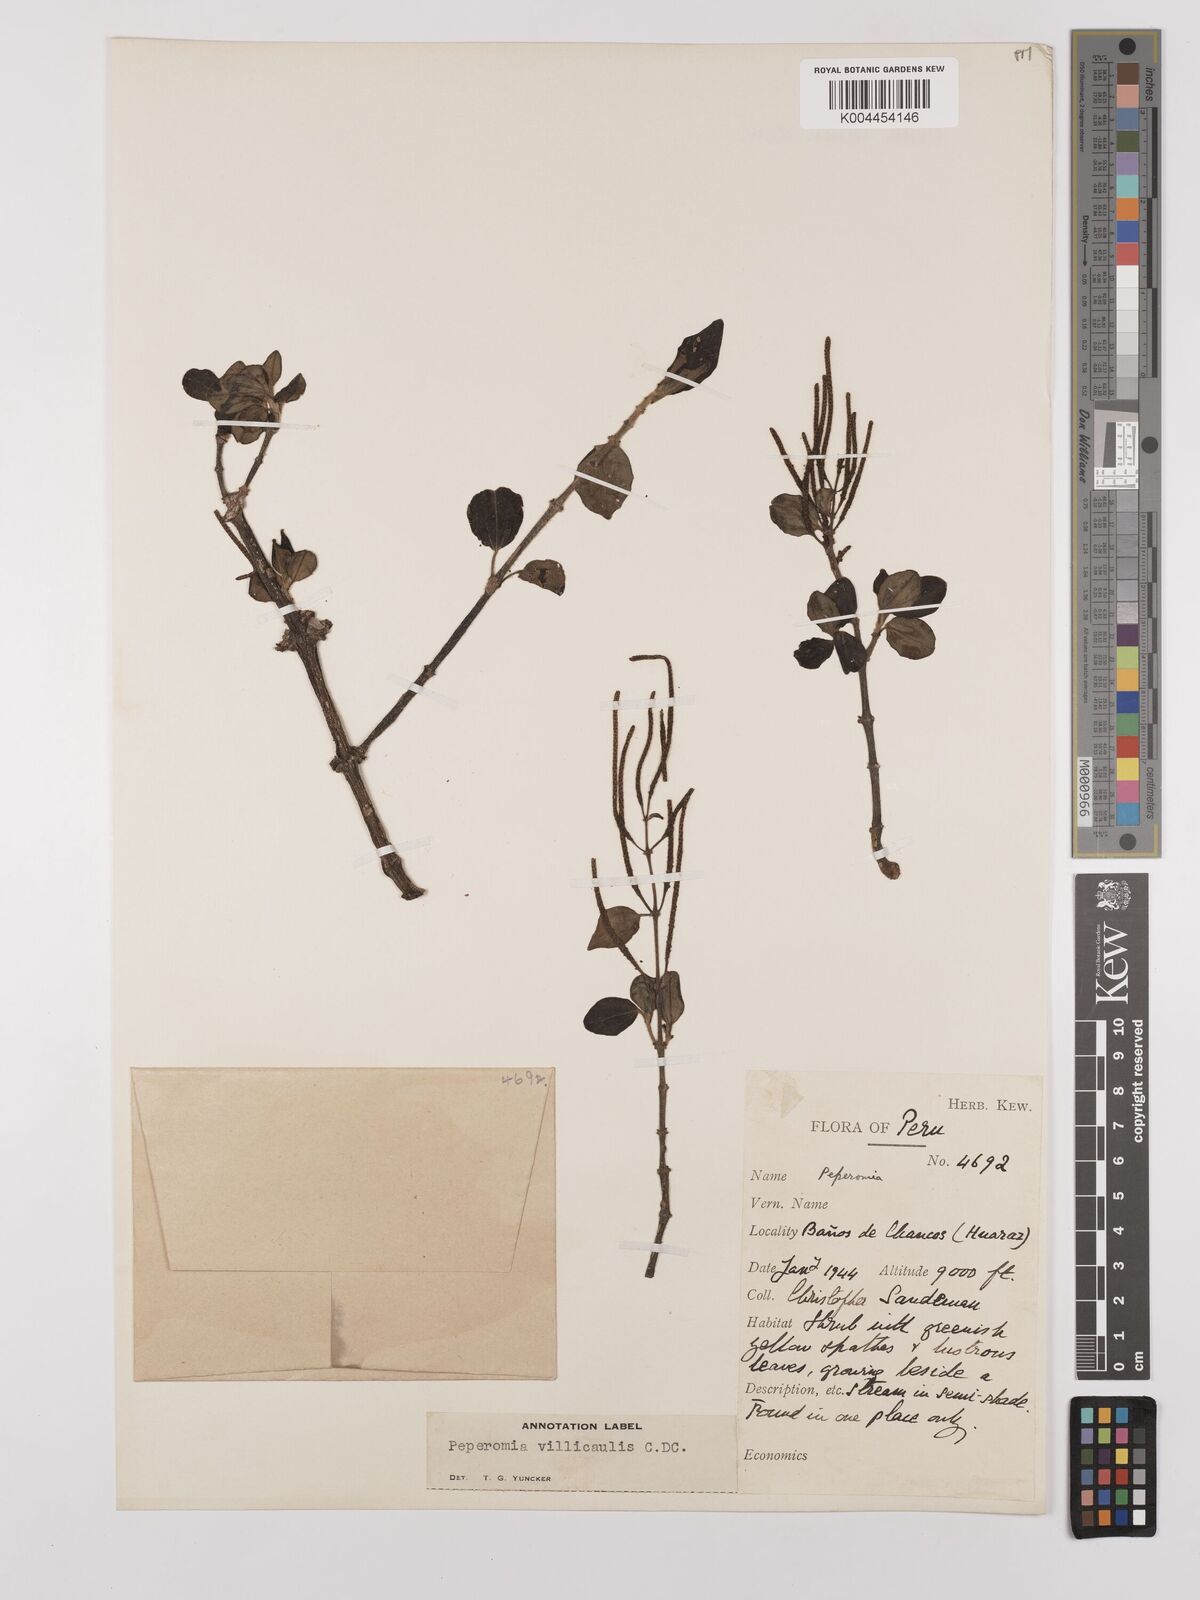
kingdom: Plantae
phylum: Tracheophyta
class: Magnoliopsida
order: Piperales
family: Piperaceae
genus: Peperomia
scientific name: Peperomia villicaulis
